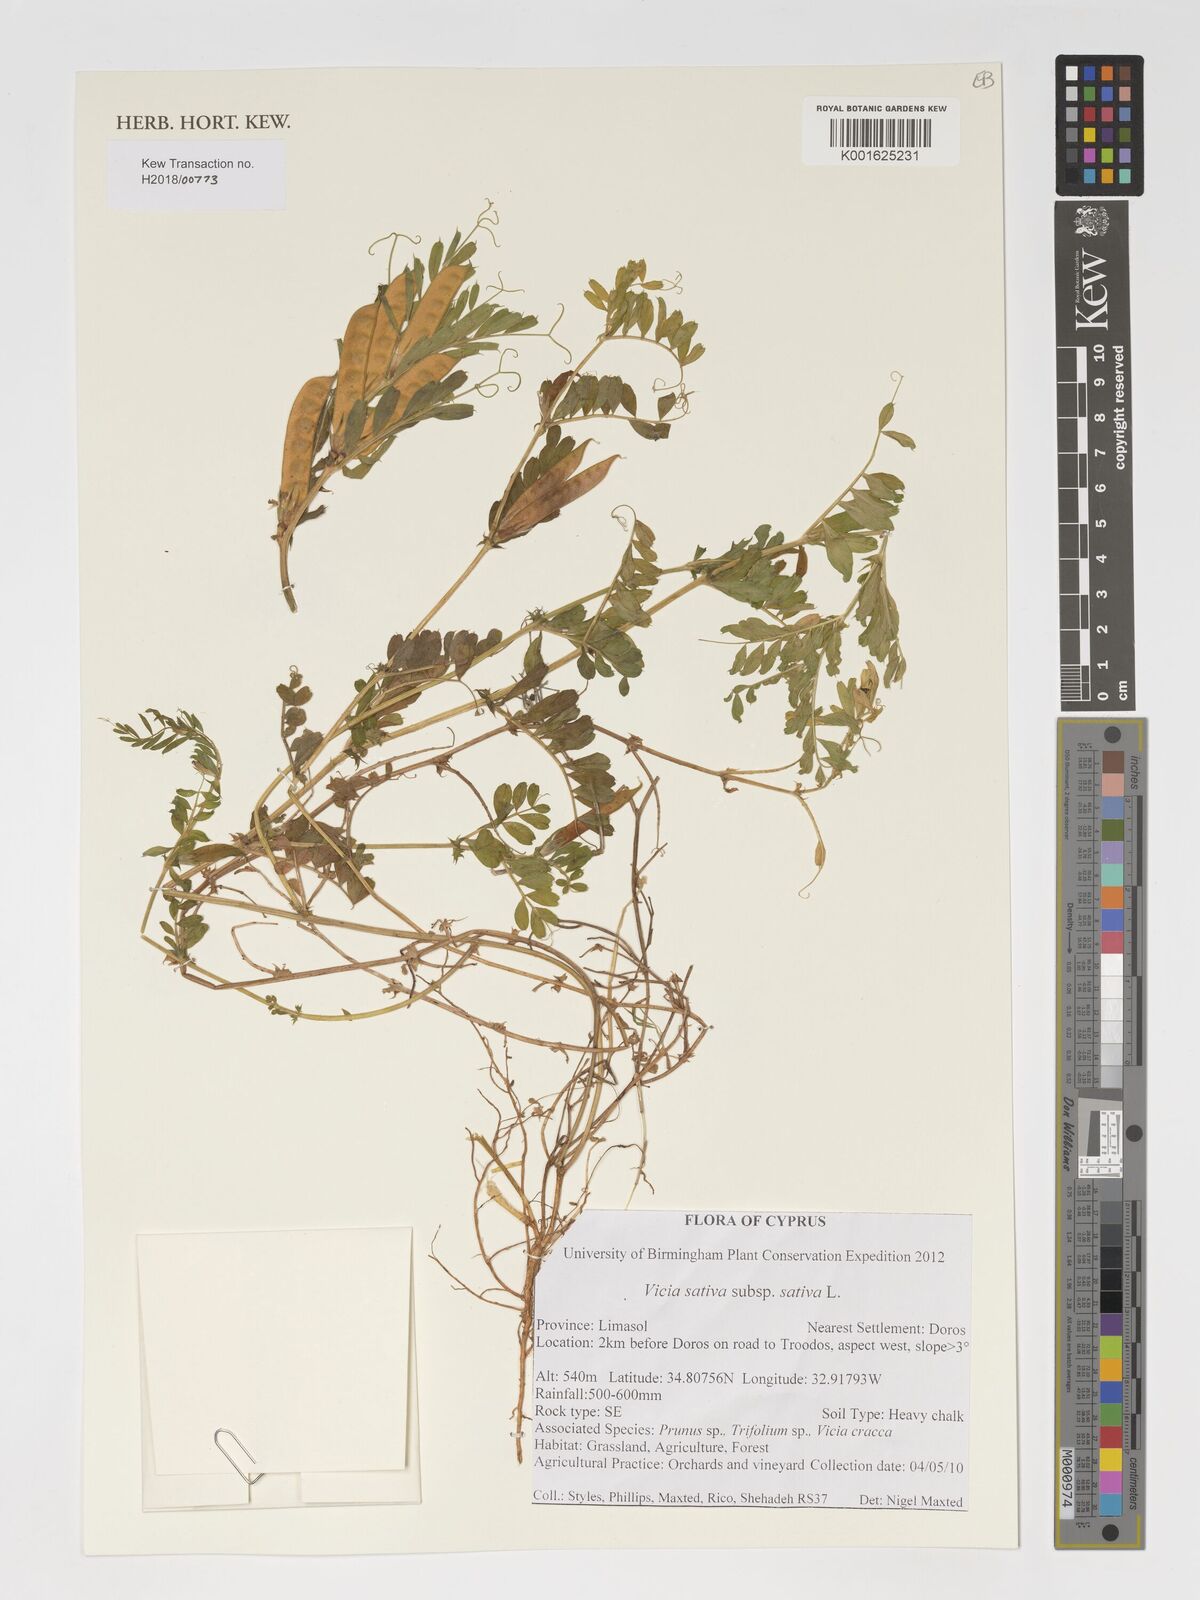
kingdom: Plantae
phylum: Tracheophyta
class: Magnoliopsida
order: Fabales
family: Fabaceae
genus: Vicia
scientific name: Vicia sativa
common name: Garden vetch
